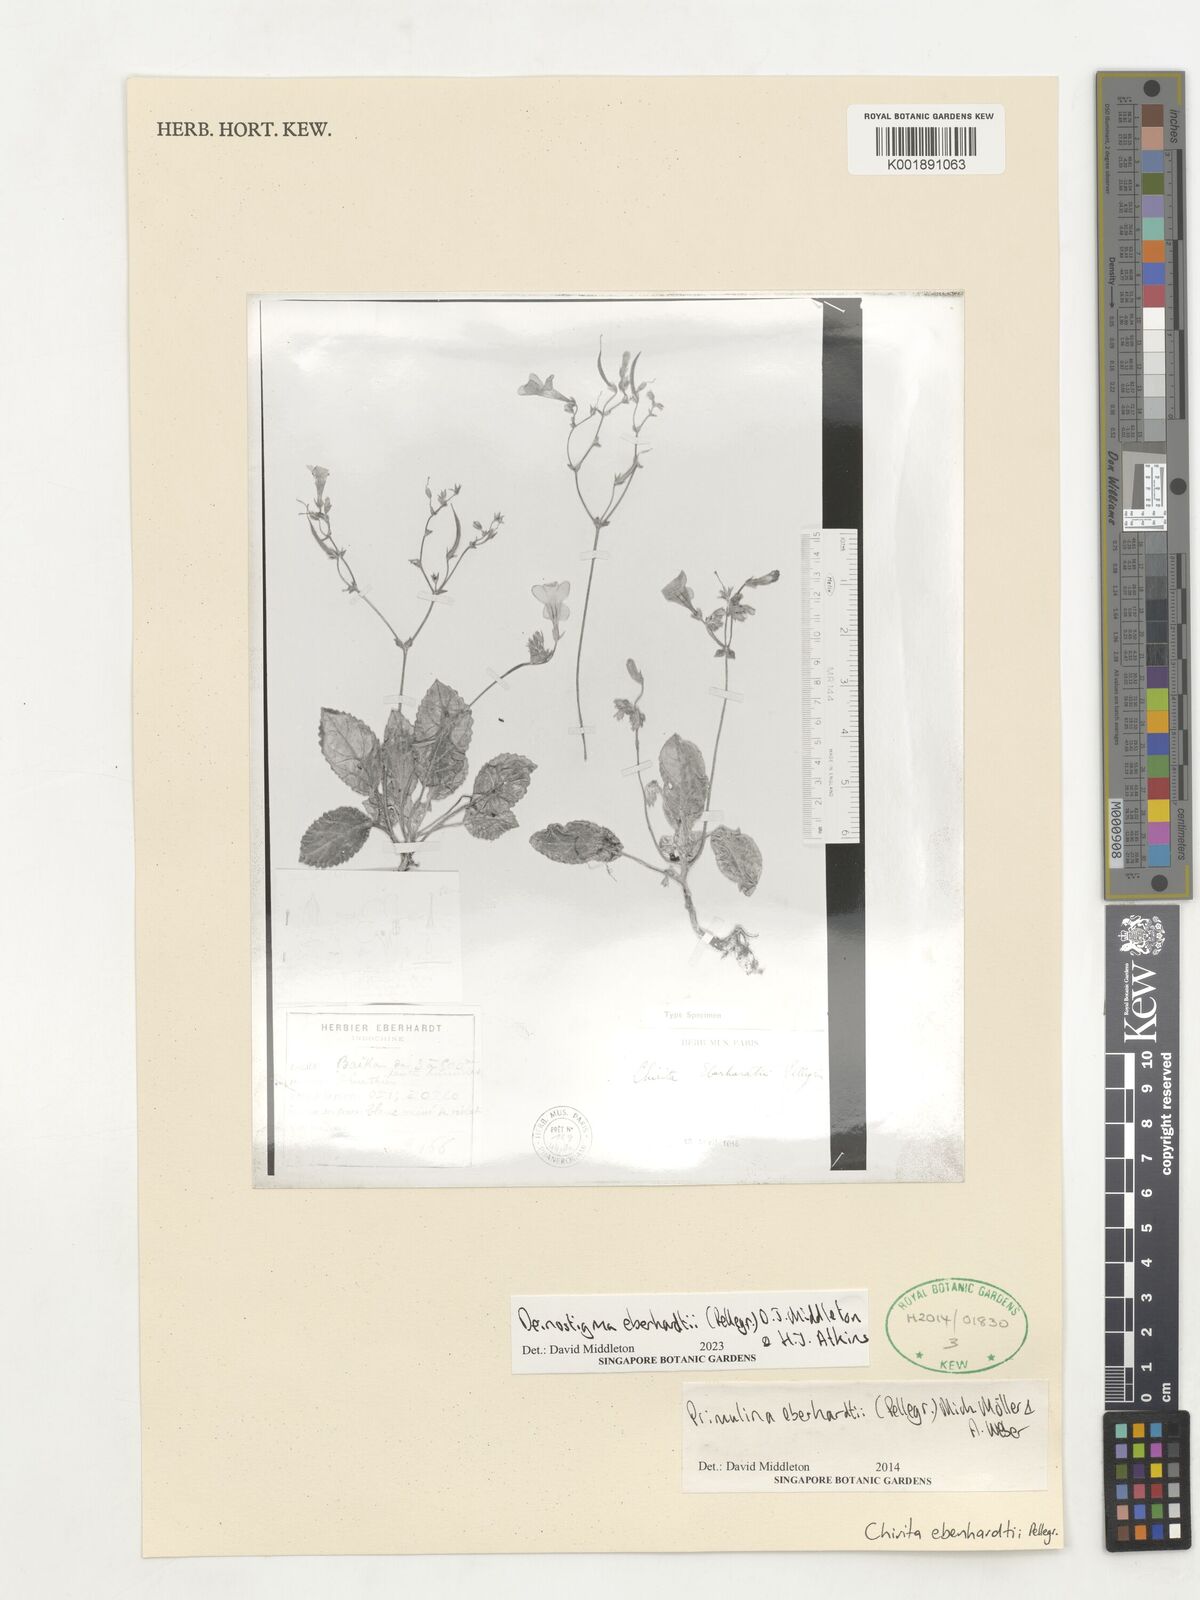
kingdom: Plantae
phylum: Tracheophyta
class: Magnoliopsida
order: Lamiales
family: Gesneriaceae
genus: Metapetrocosmea
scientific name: Metapetrocosmea eberhardtii
